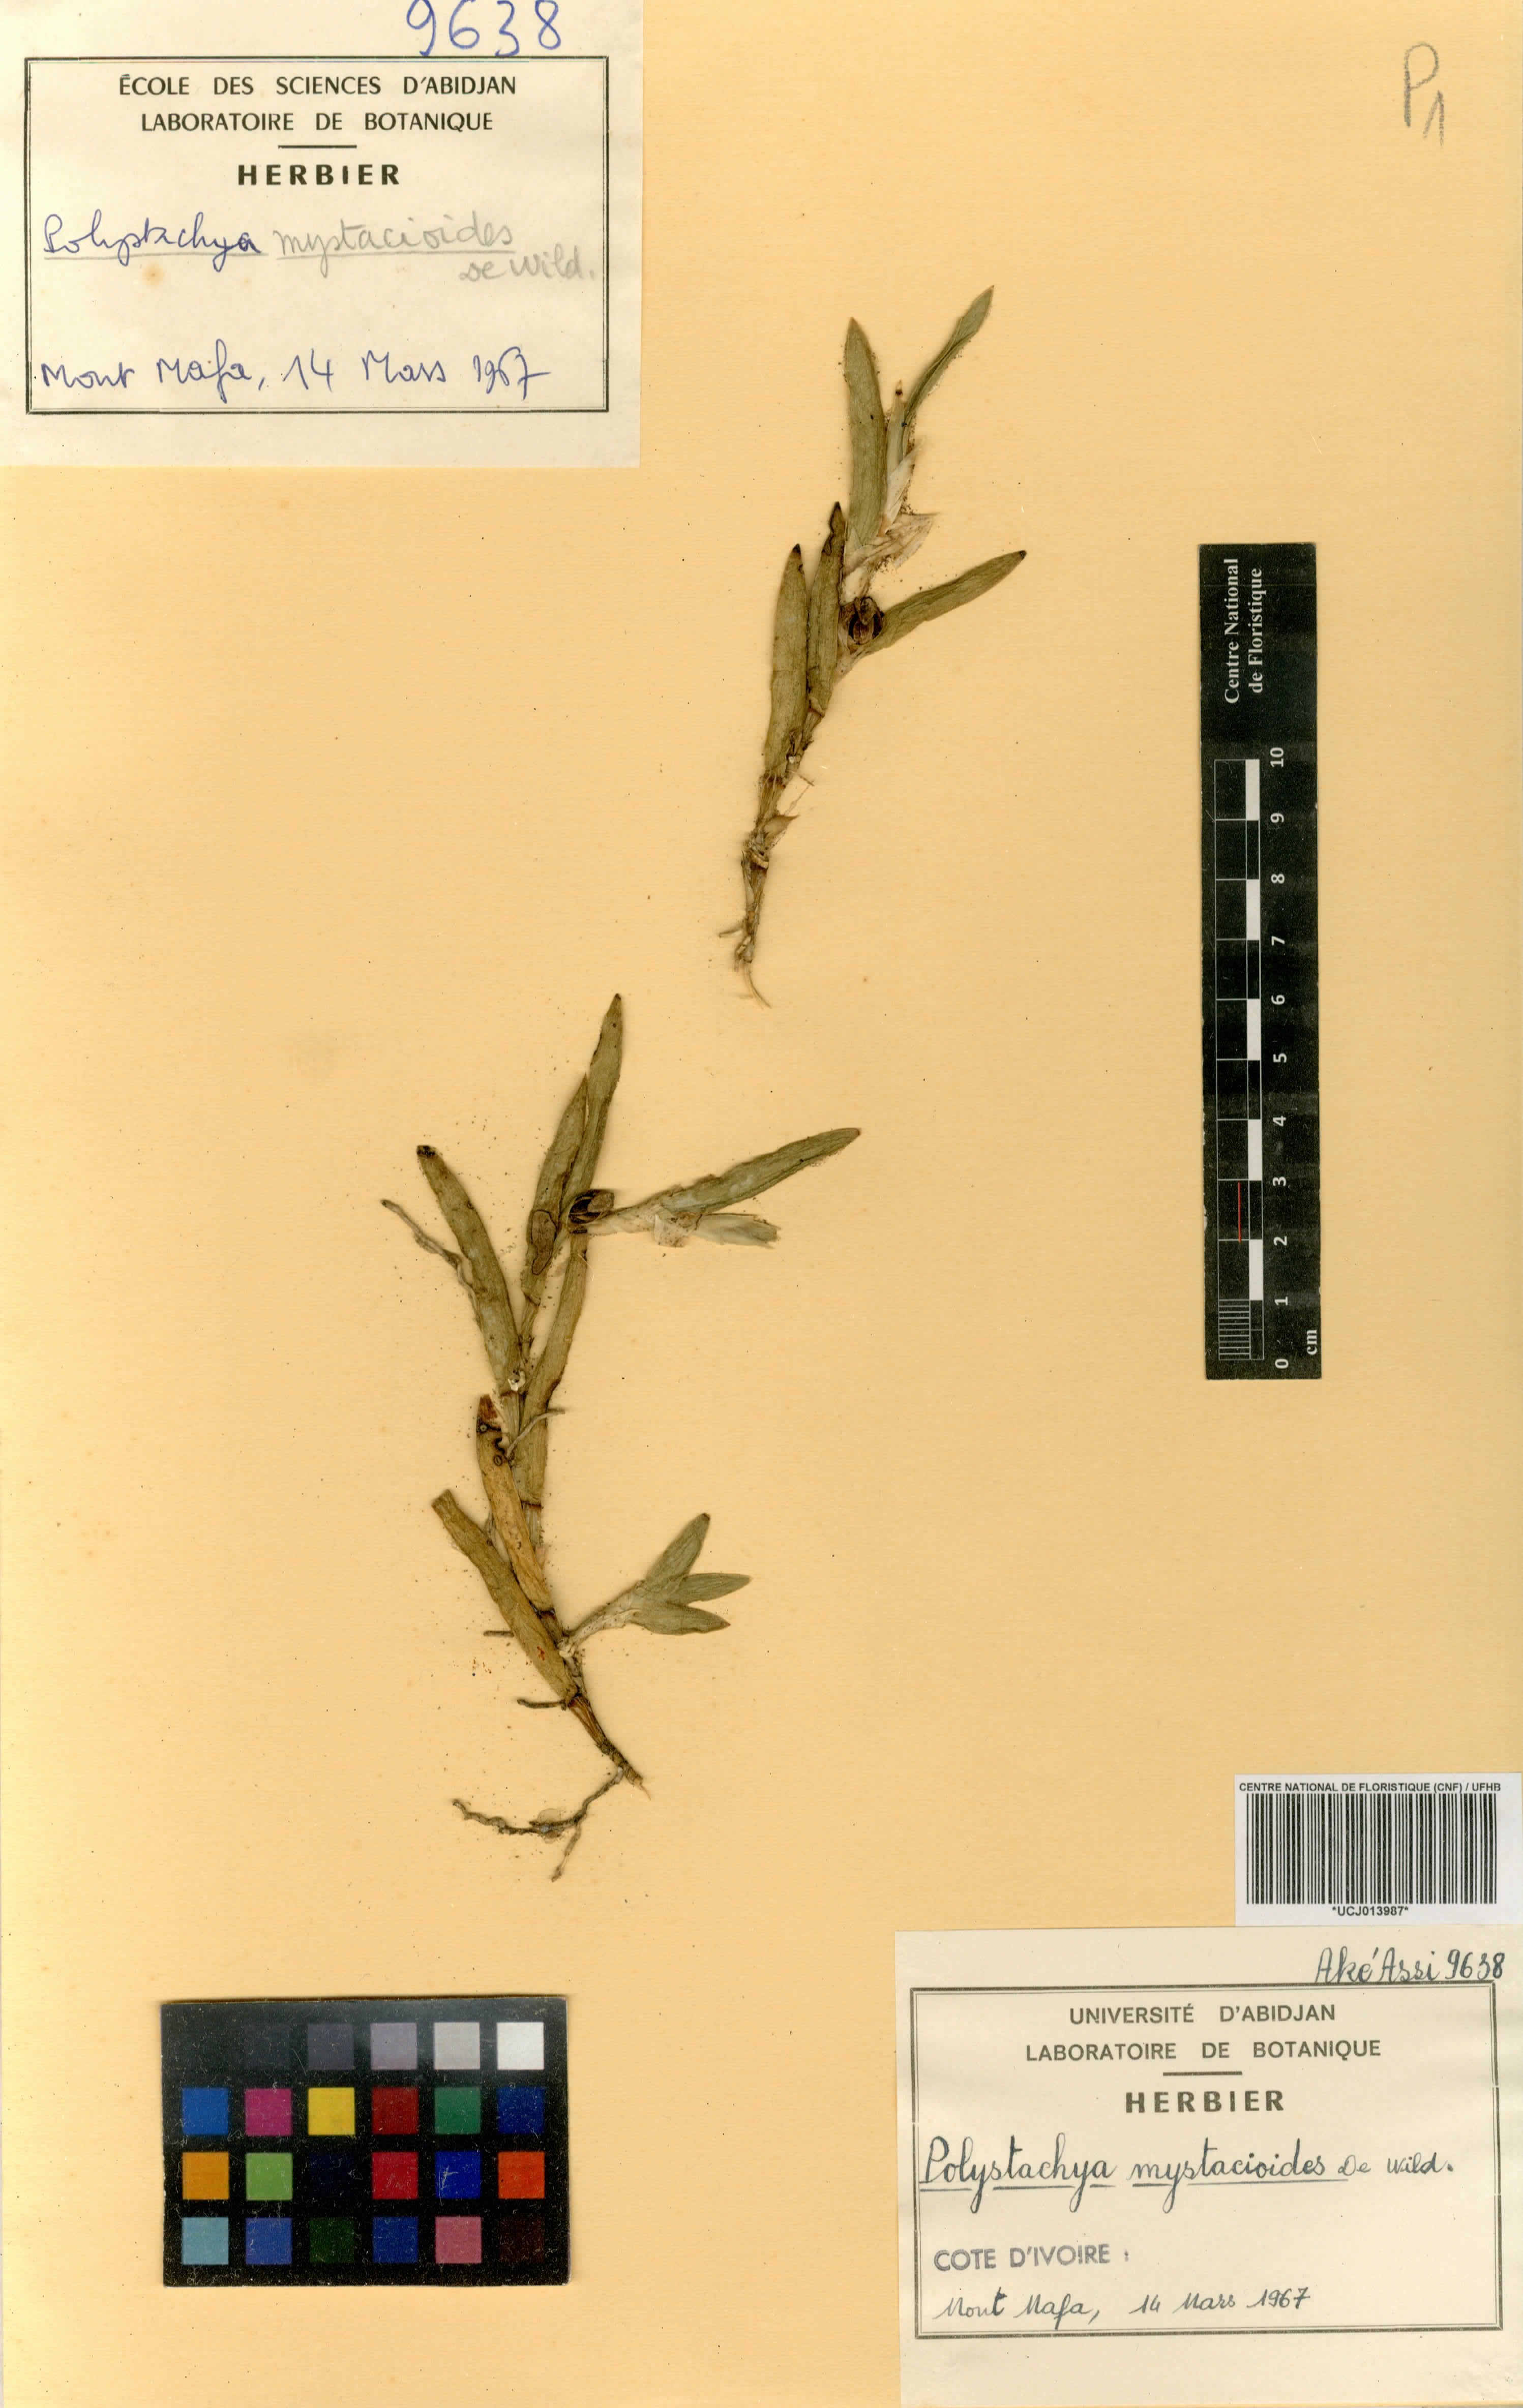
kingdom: Plantae
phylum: Tracheophyta
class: Liliopsida
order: Asparagales
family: Orchidaceae
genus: Polystachya
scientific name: Polystachya mystacioides
